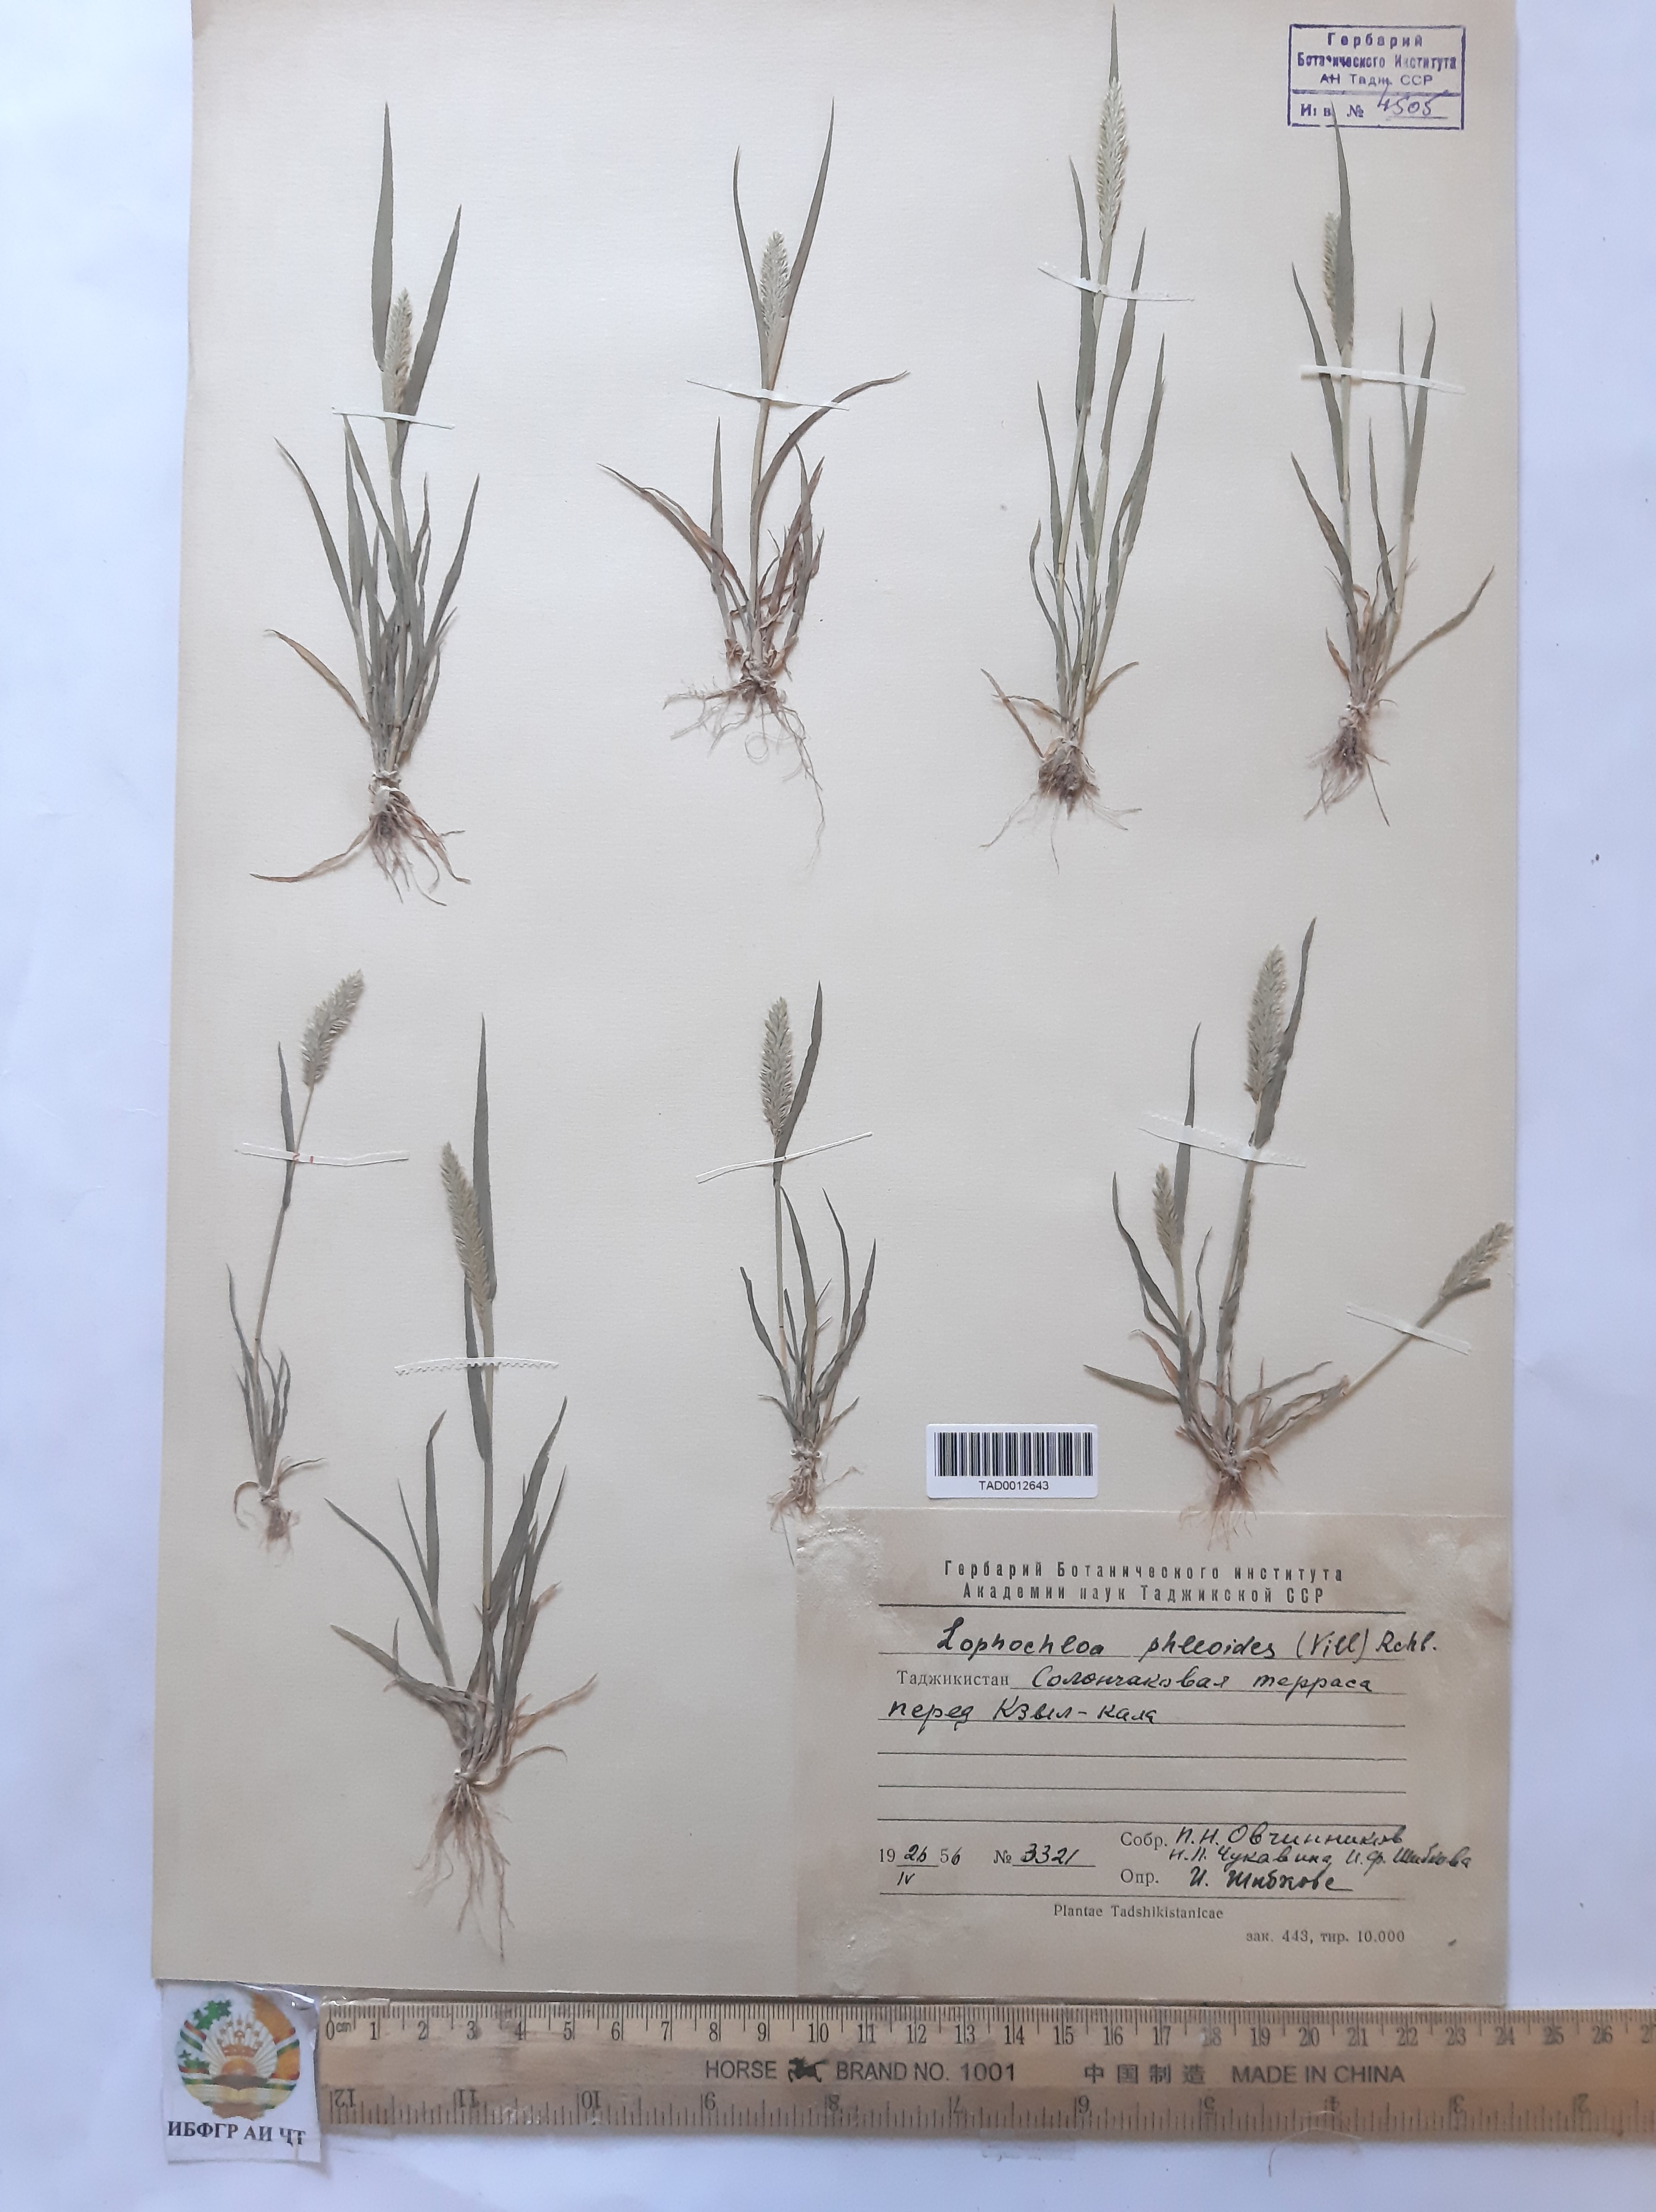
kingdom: Plantae
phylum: Tracheophyta
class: Liliopsida
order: Poales
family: Poaceae
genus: Rostraria
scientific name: Rostraria cristata
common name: Mediterranean hair-grass
